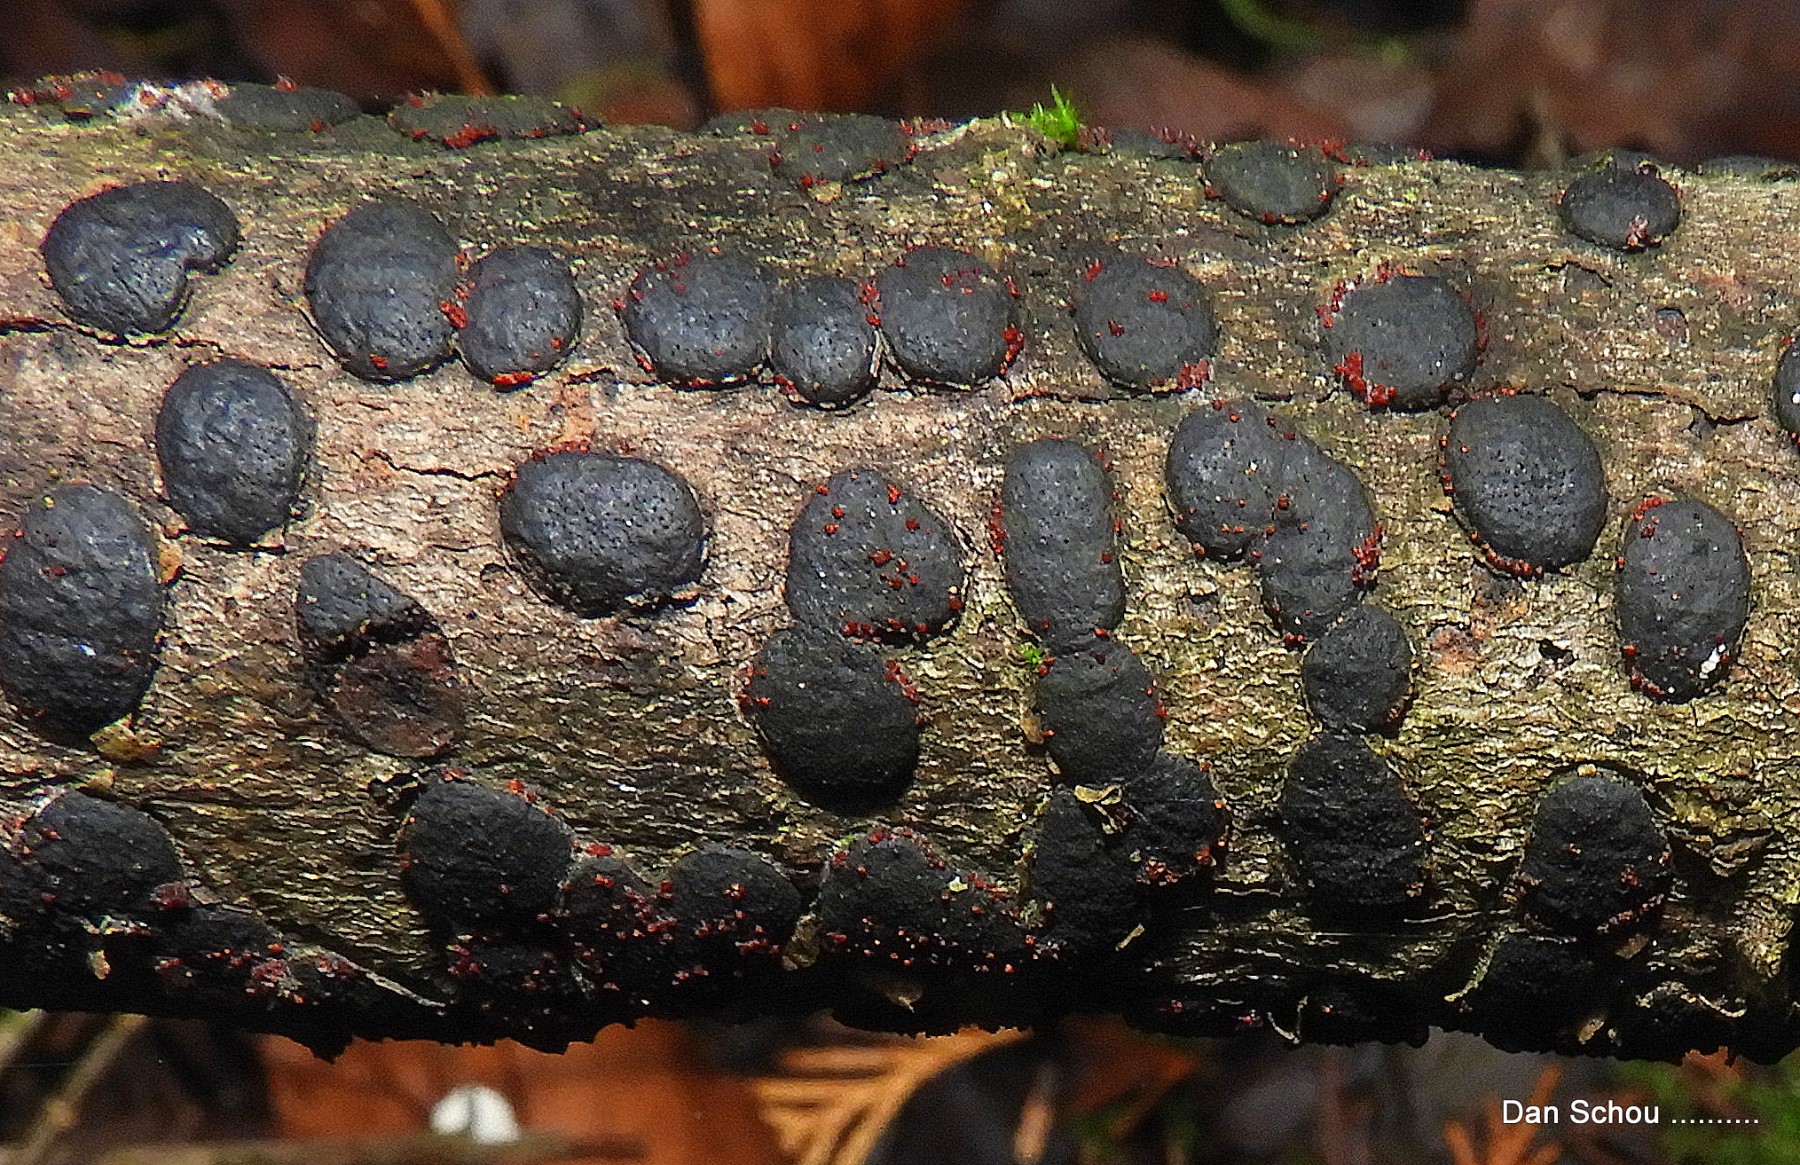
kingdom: Fungi
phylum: Ascomycota
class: Sordariomycetes
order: Hypocreales
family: Nectriaceae
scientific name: Nectriaceae
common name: cinnobersvampfamilien
